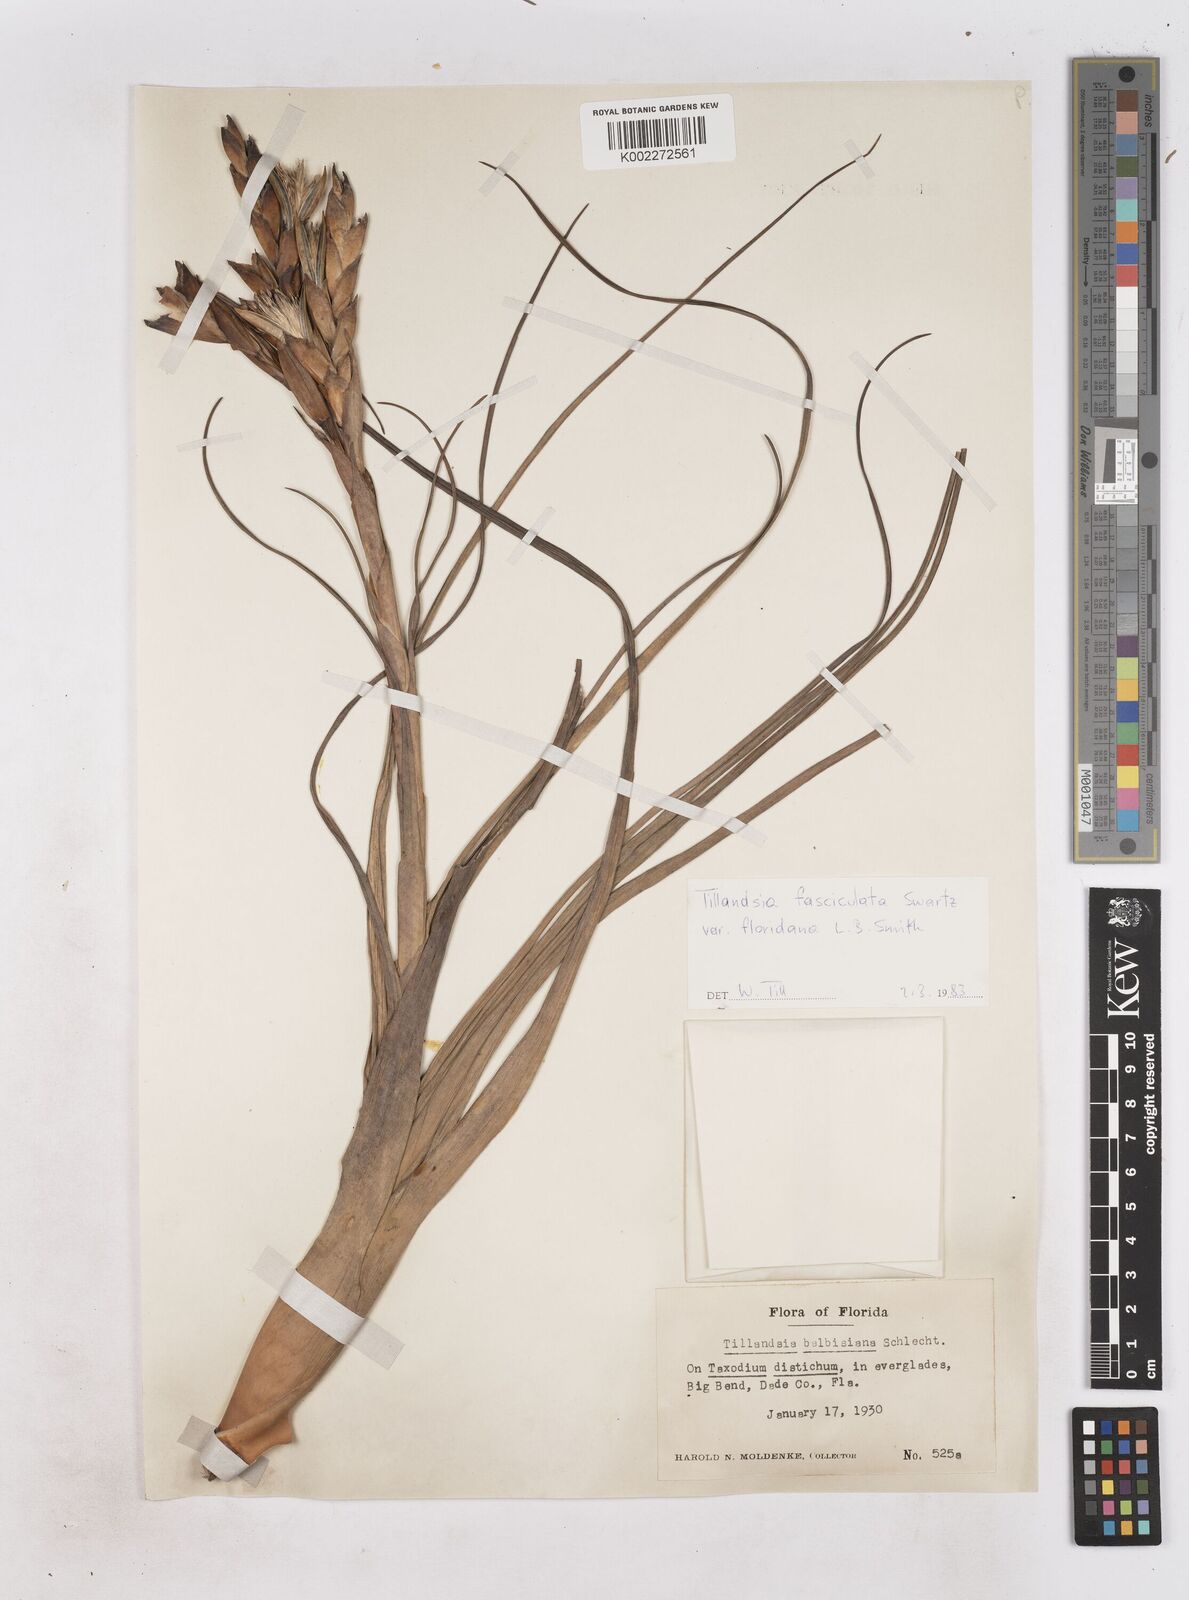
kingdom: Plantae
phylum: Tracheophyta
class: Liliopsida
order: Poales
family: Bromeliaceae
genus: Tillandsia
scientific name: Tillandsia floridana
